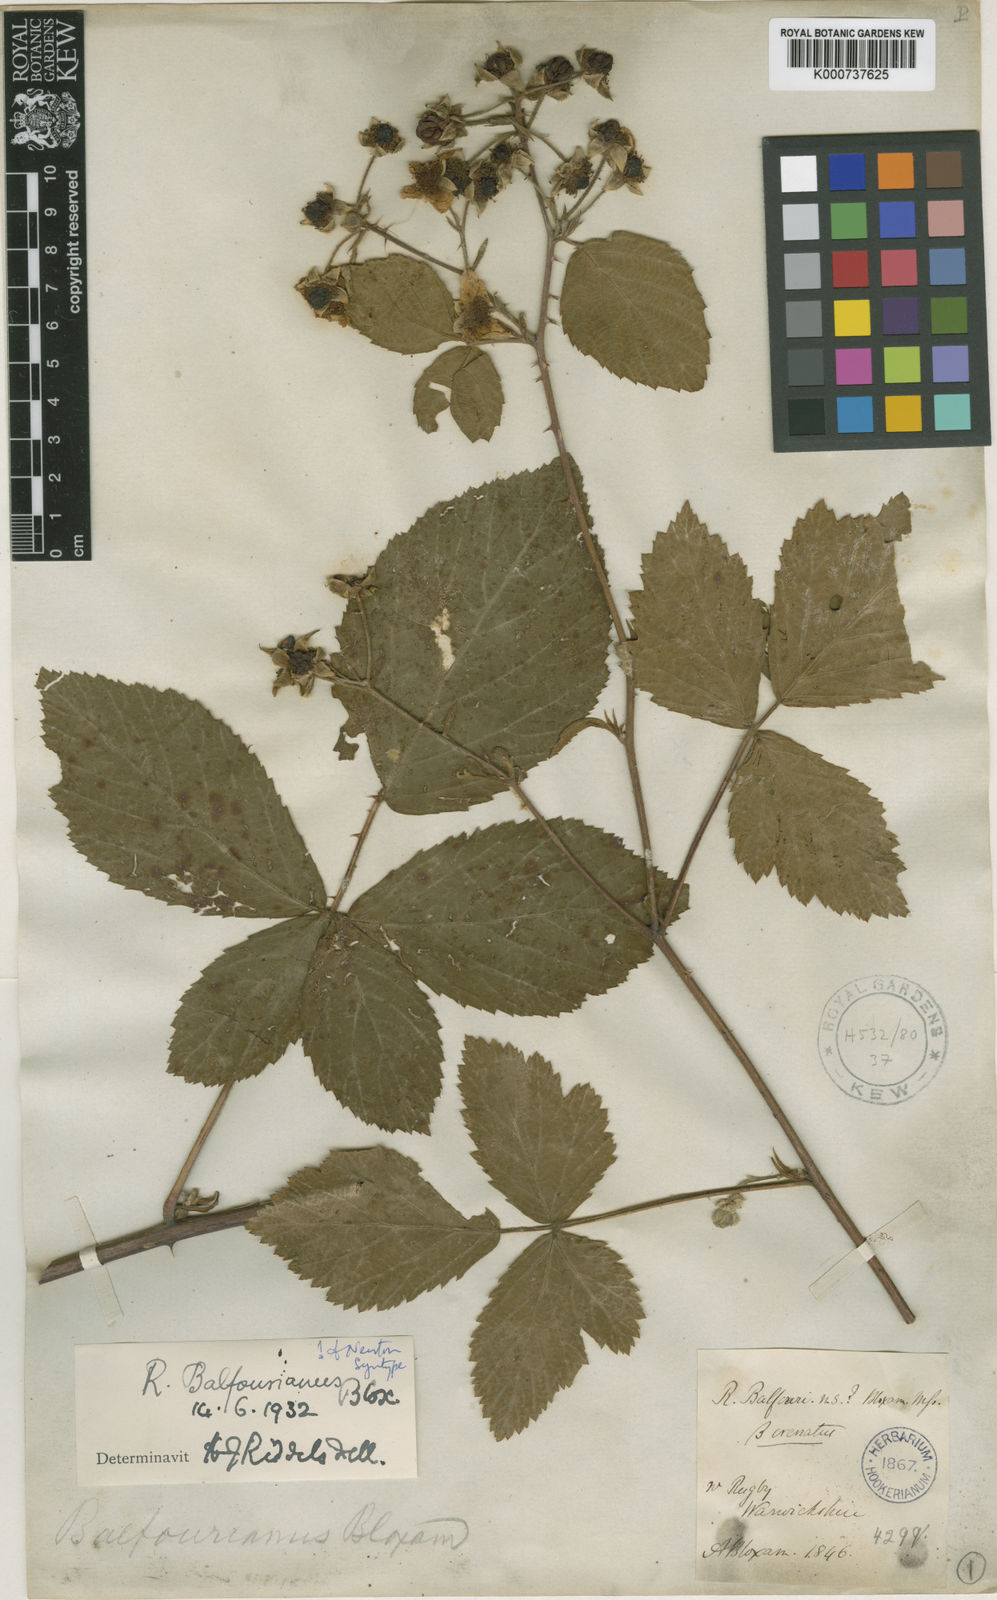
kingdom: Plantae
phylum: Tracheophyta
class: Magnoliopsida
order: Rosales
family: Rosaceae
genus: Rubus
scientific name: Rubus nemorosus
